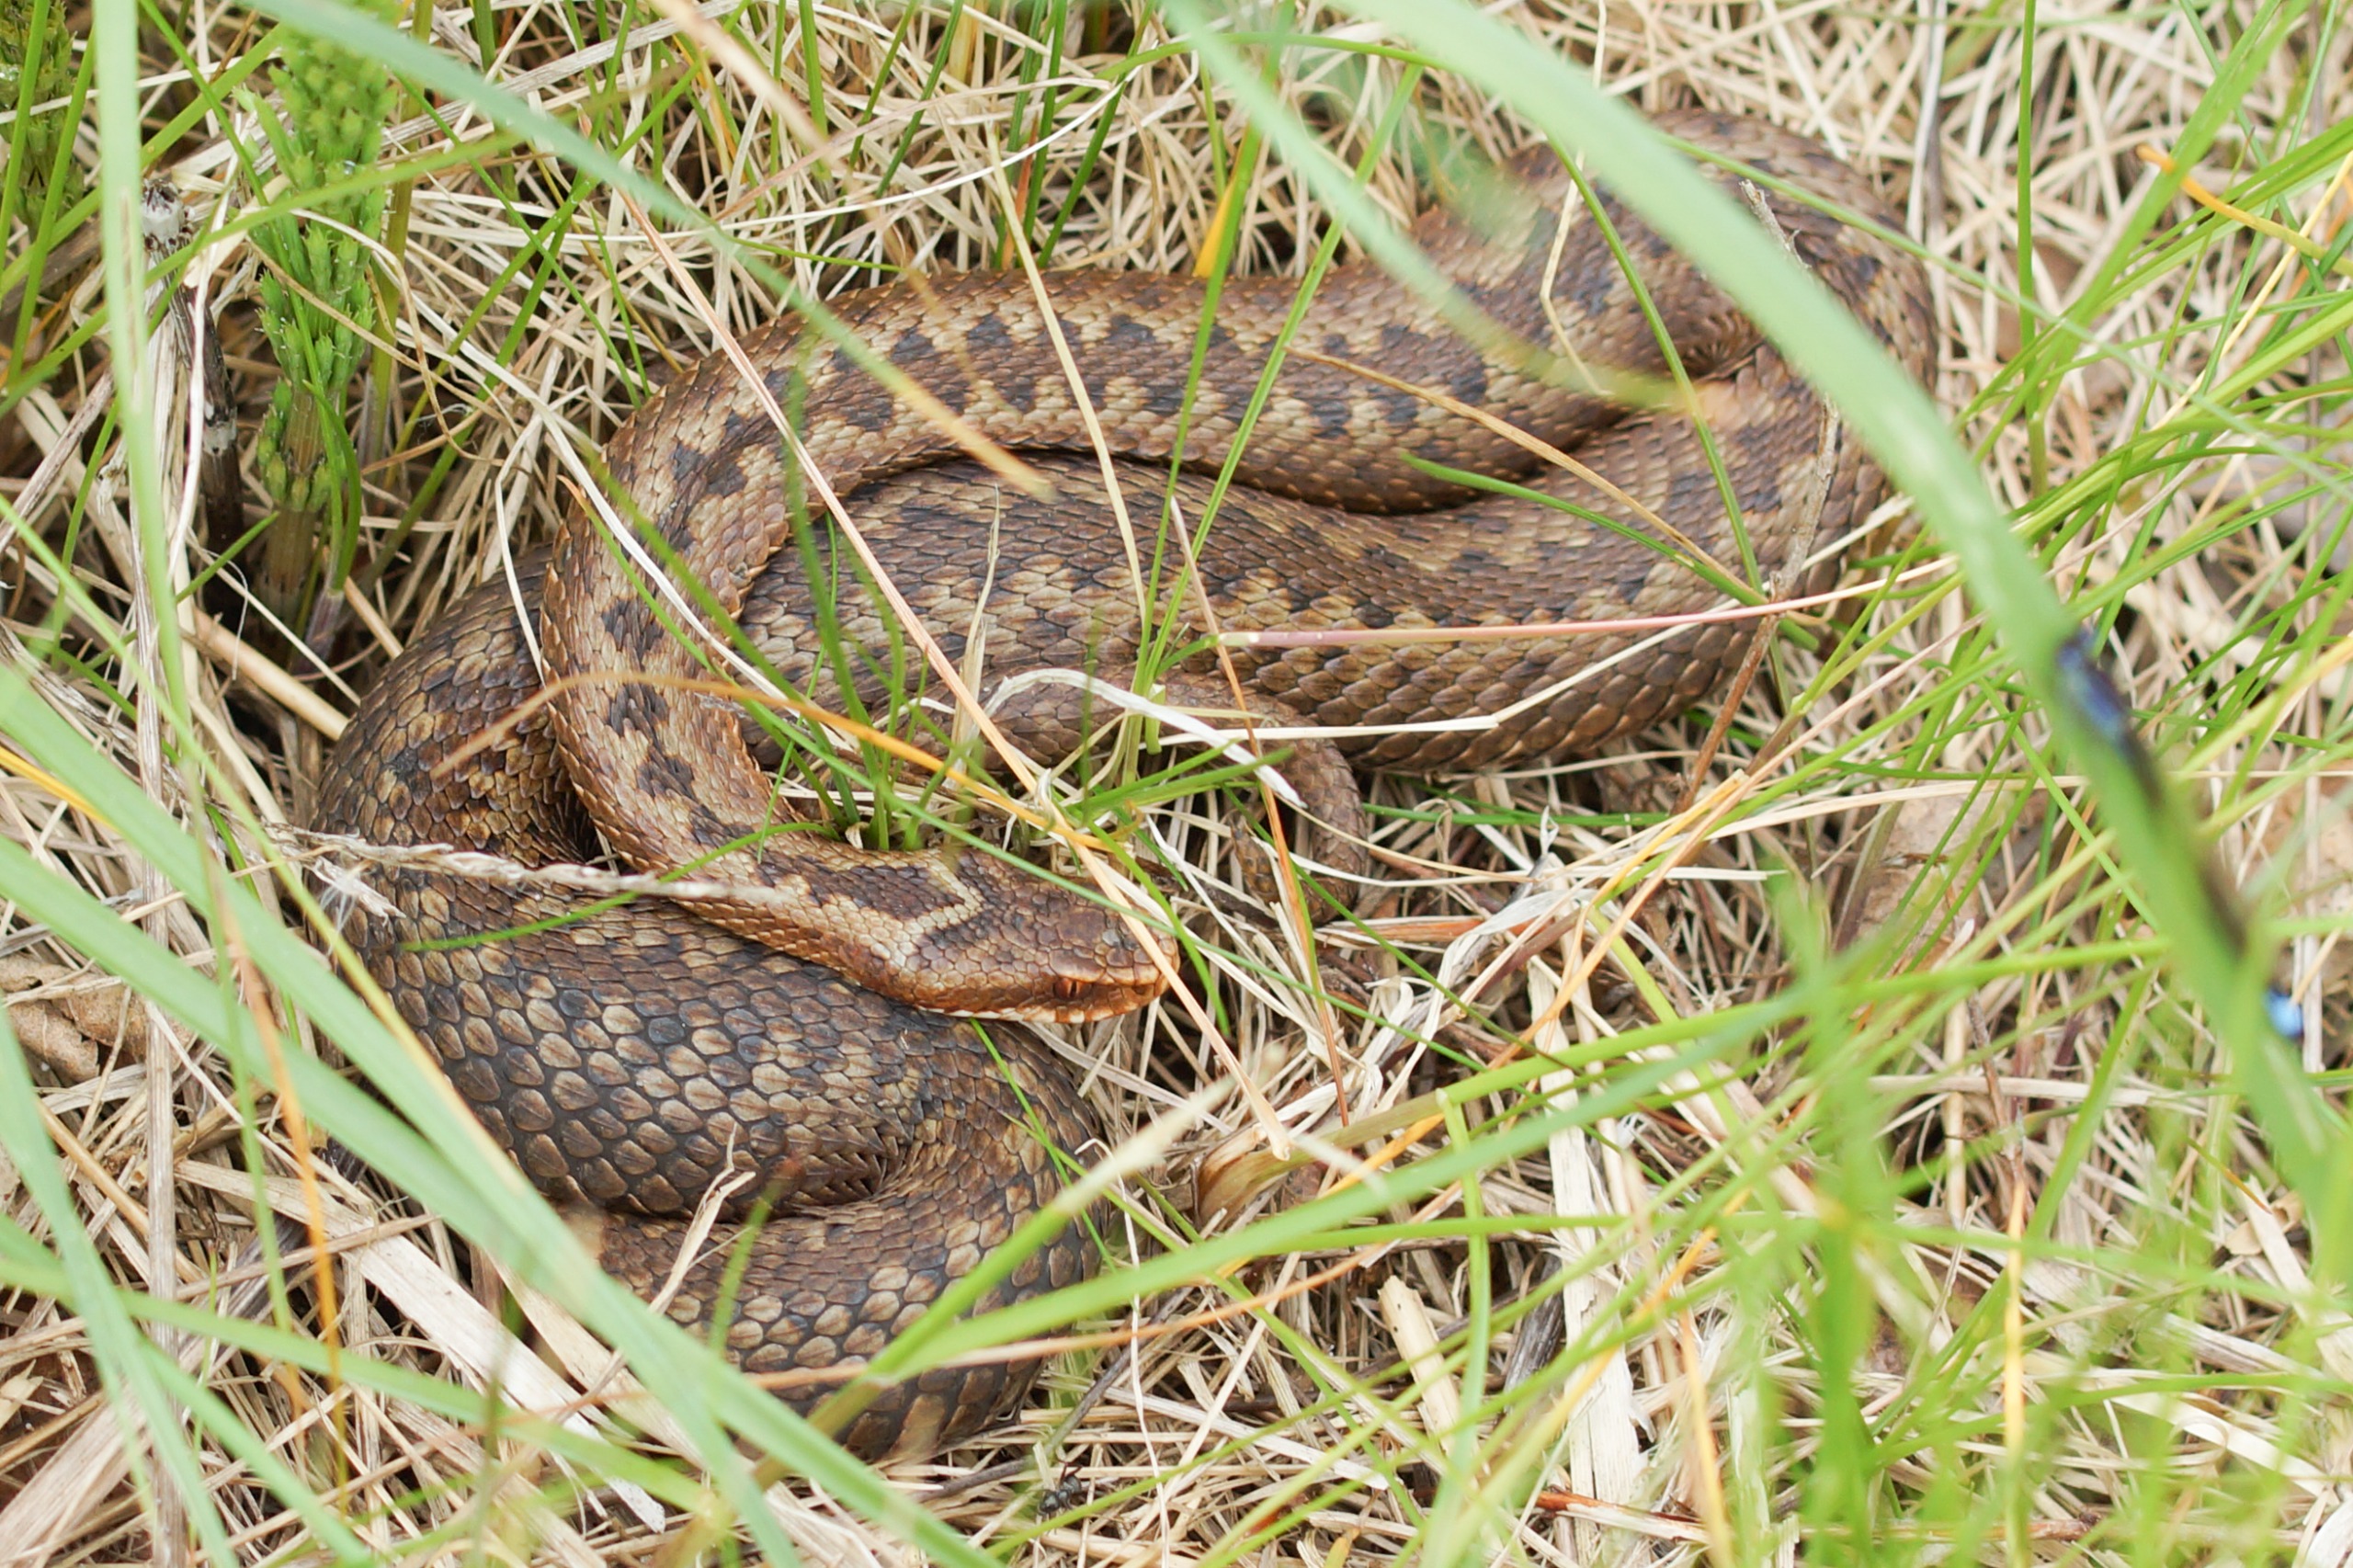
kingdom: Animalia
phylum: Chordata
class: Squamata
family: Viperidae
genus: Vipera
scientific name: Vipera berus
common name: Hugorm
